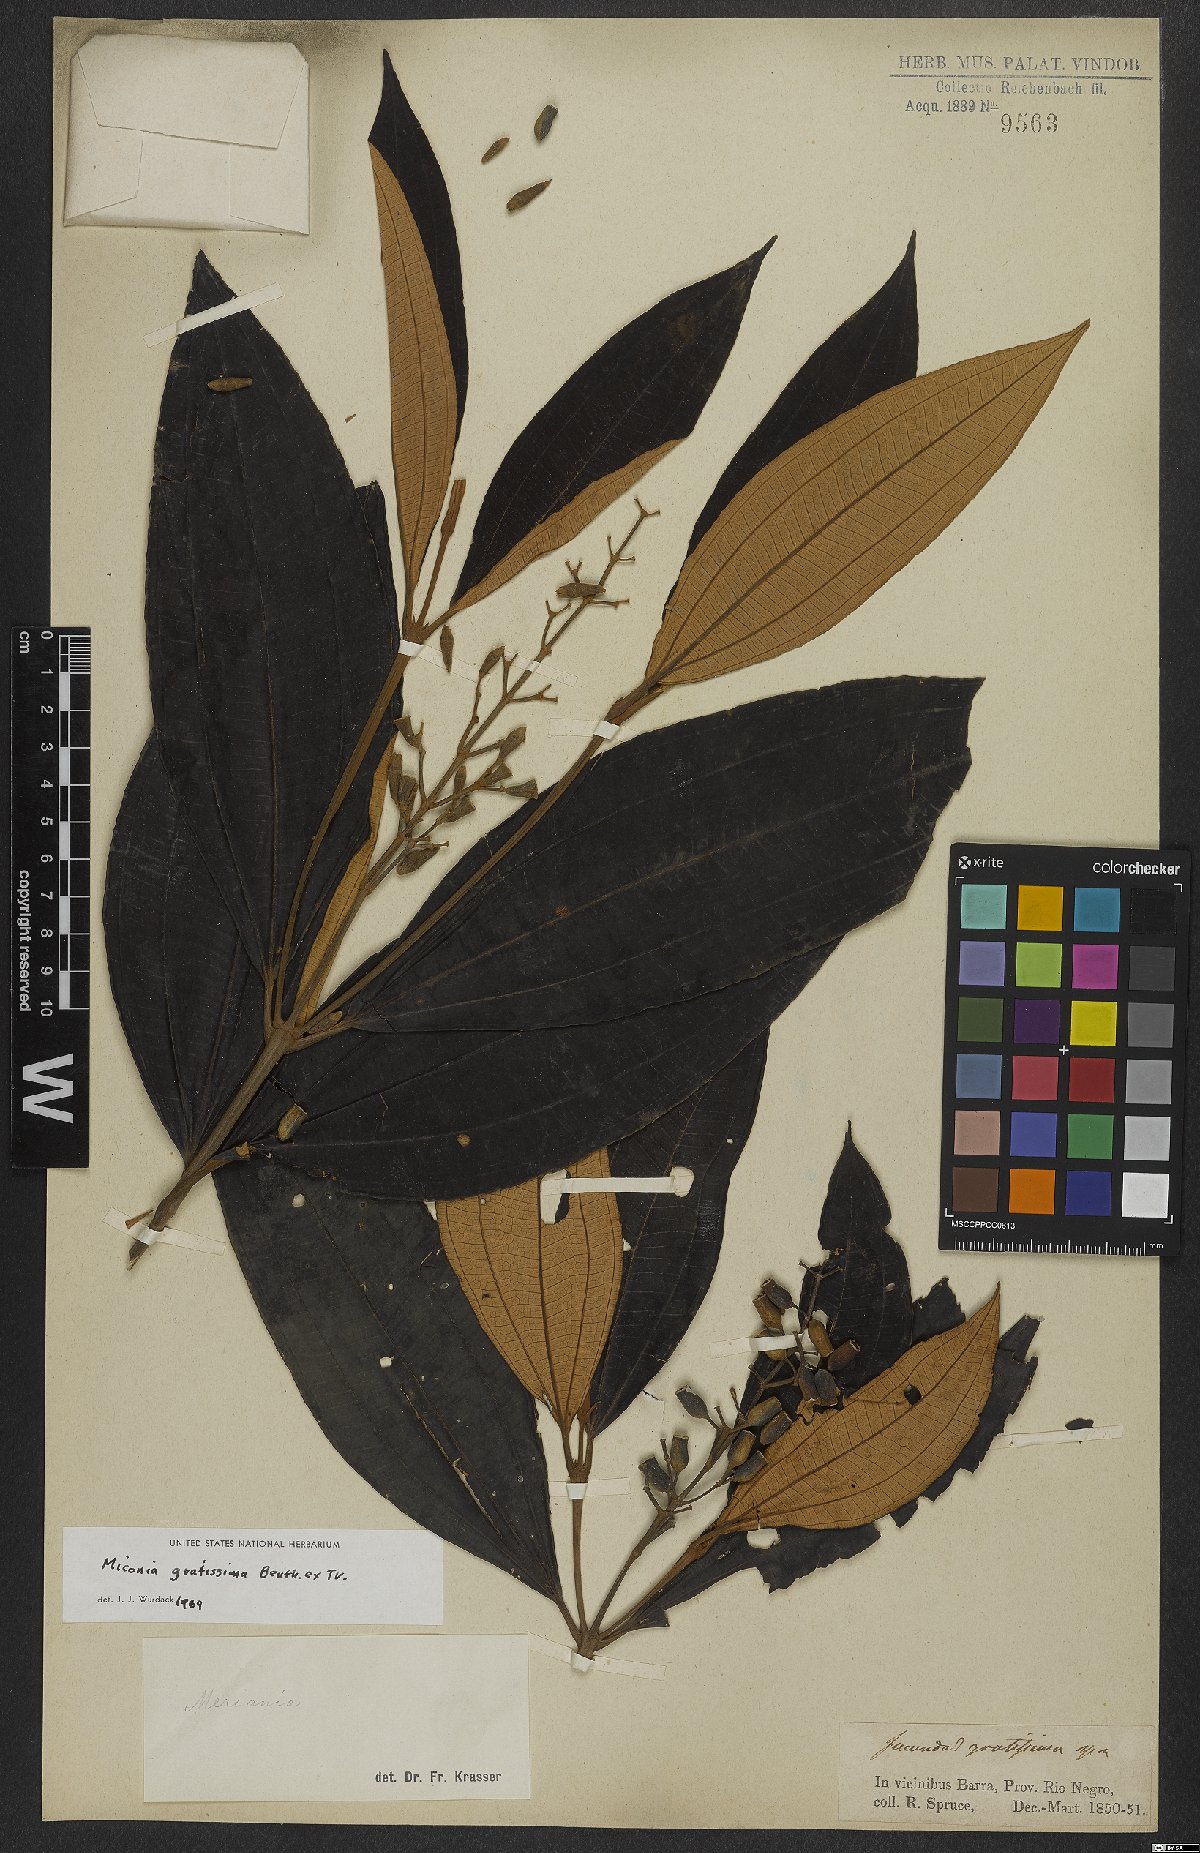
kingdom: Plantae
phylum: Tracheophyta
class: Magnoliopsida
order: Myrtales
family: Melastomataceae
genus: Miconia
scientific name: Miconia gratissima
